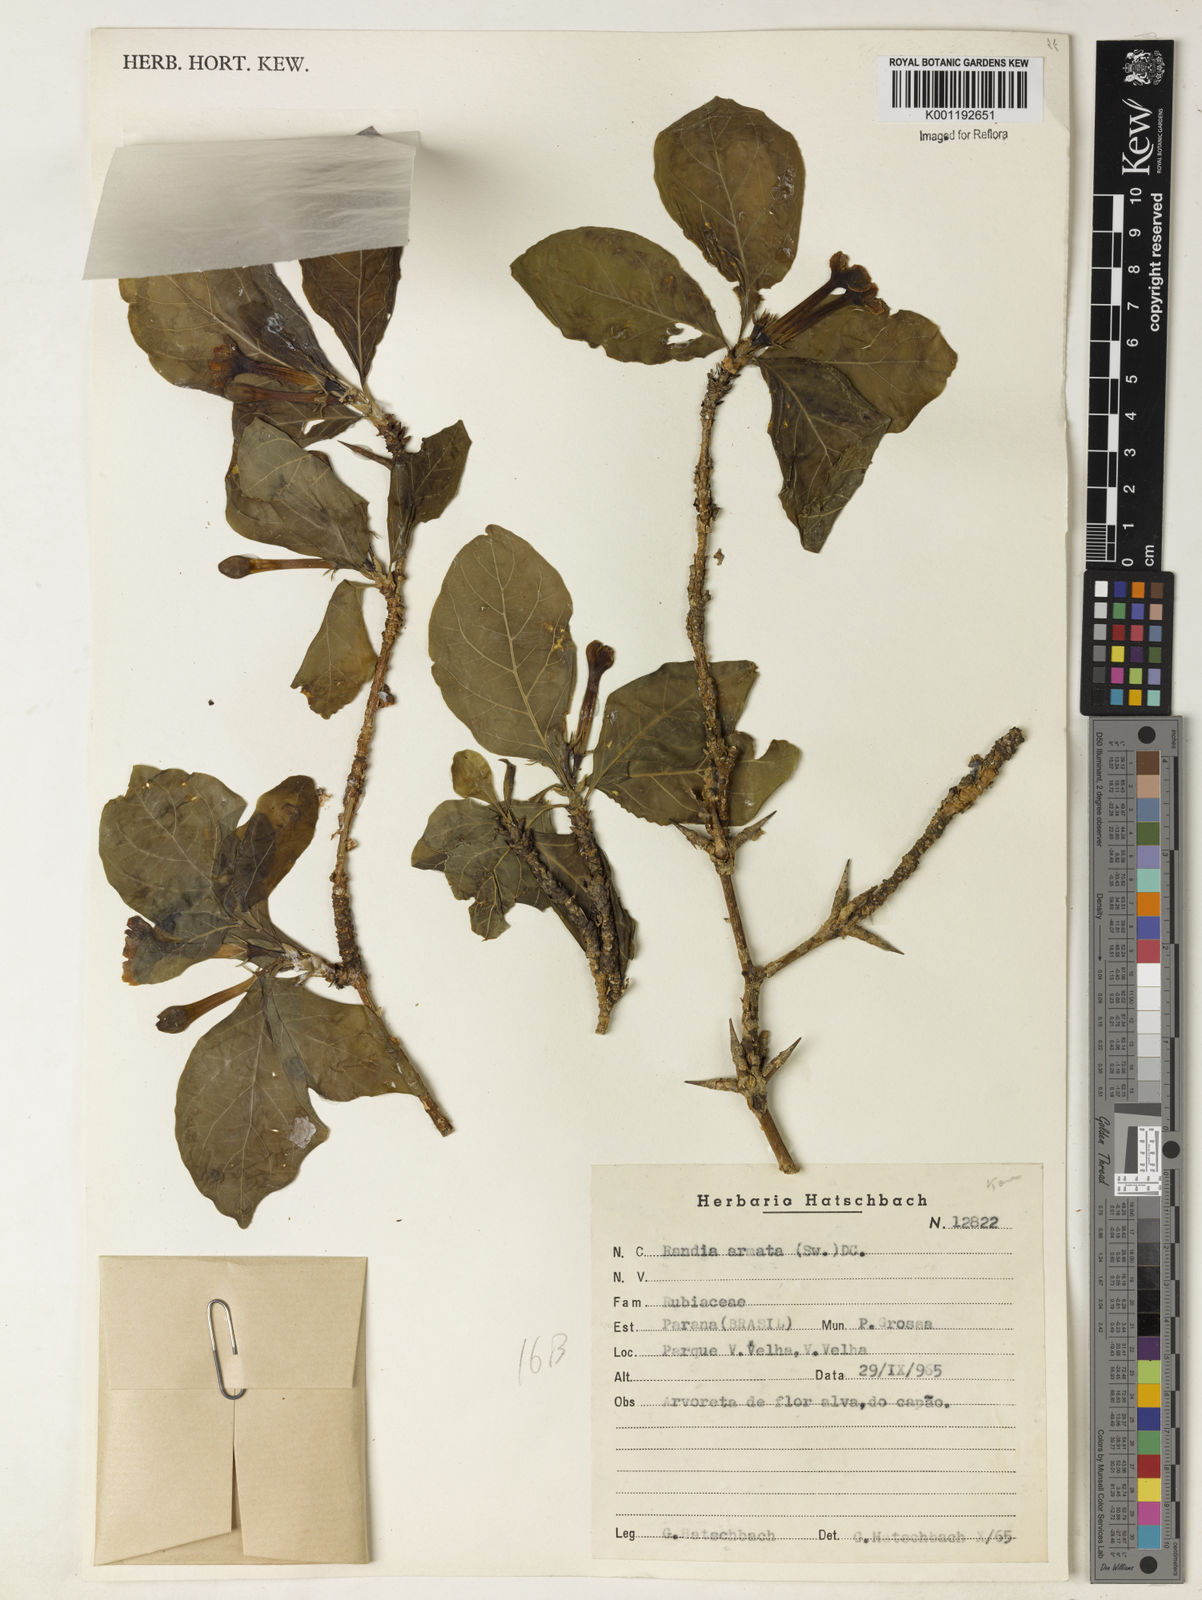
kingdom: Plantae
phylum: Tracheophyta
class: Magnoliopsida
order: Gentianales
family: Rubiaceae
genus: Randia
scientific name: Randia armata
